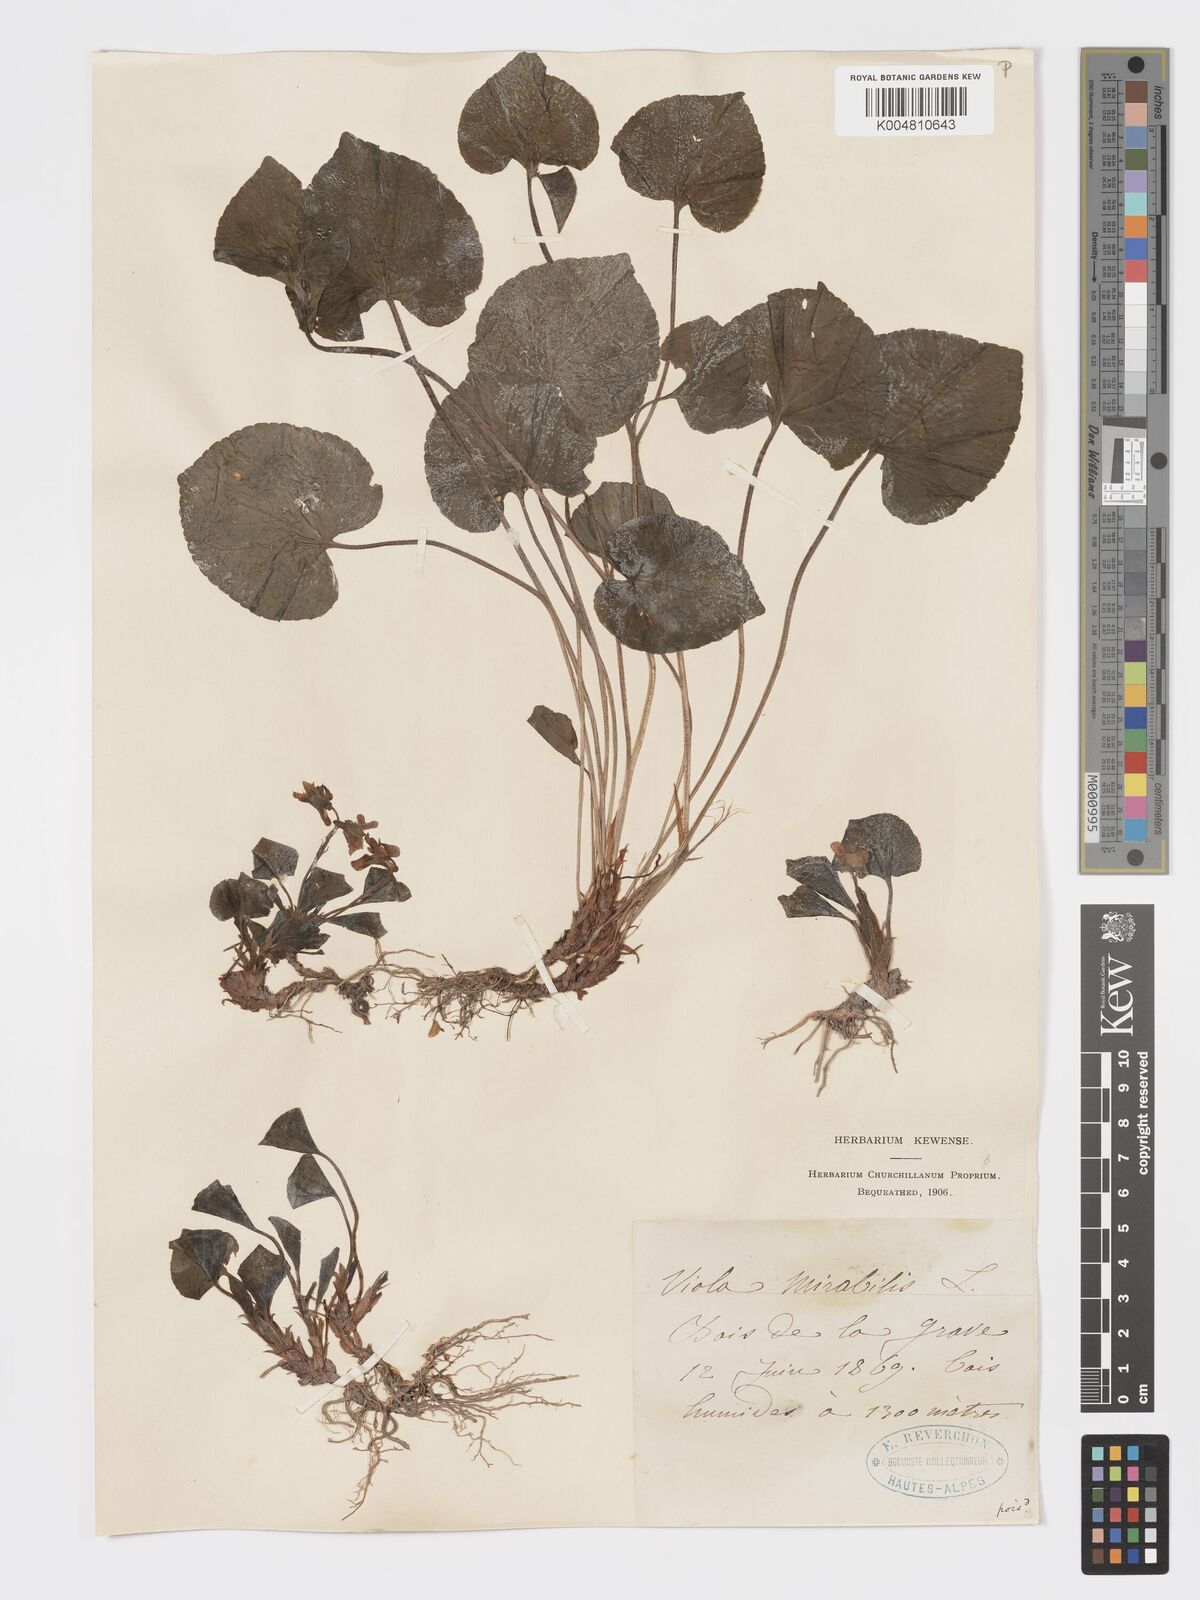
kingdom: Plantae
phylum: Tracheophyta
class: Magnoliopsida
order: Malpighiales
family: Violaceae
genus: Viola
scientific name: Viola mirabilis
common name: Wonder violet
